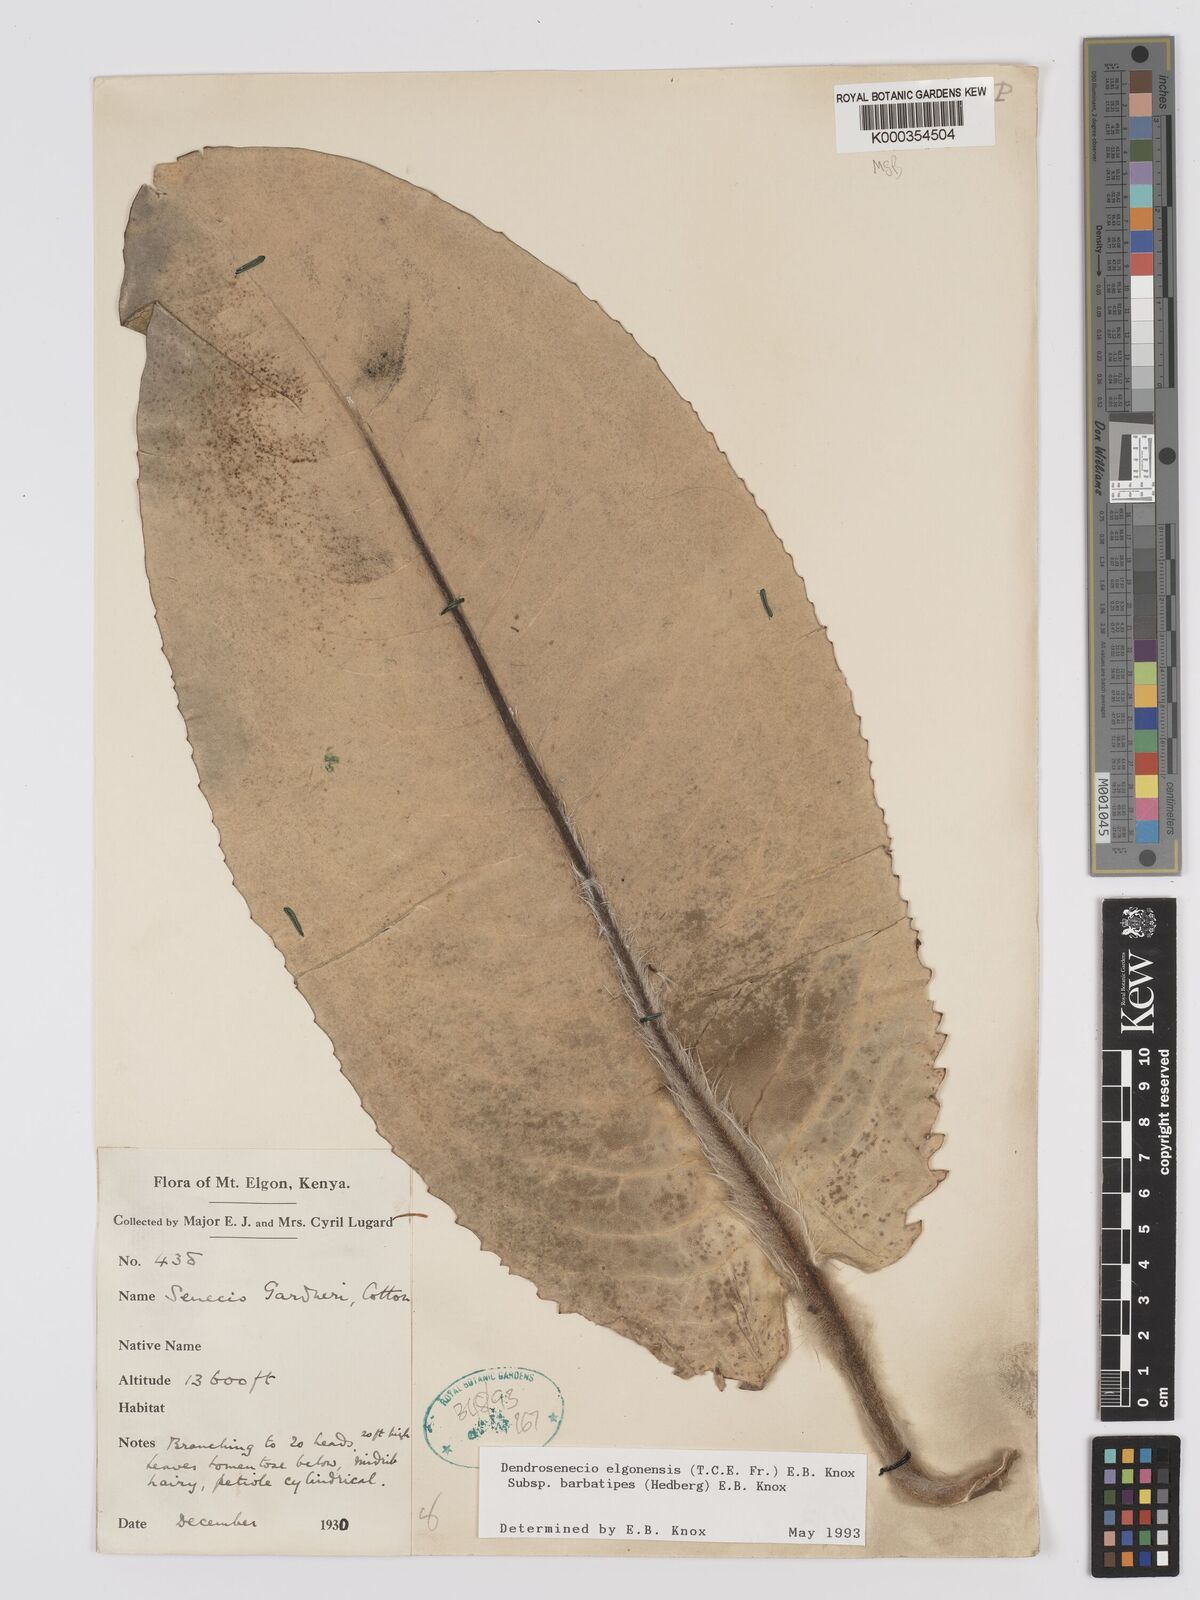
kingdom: Plantae
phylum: Tracheophyta
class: Magnoliopsida
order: Asterales
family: Asteraceae
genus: Dendrosenecio
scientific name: Dendrosenecio elgonensis
